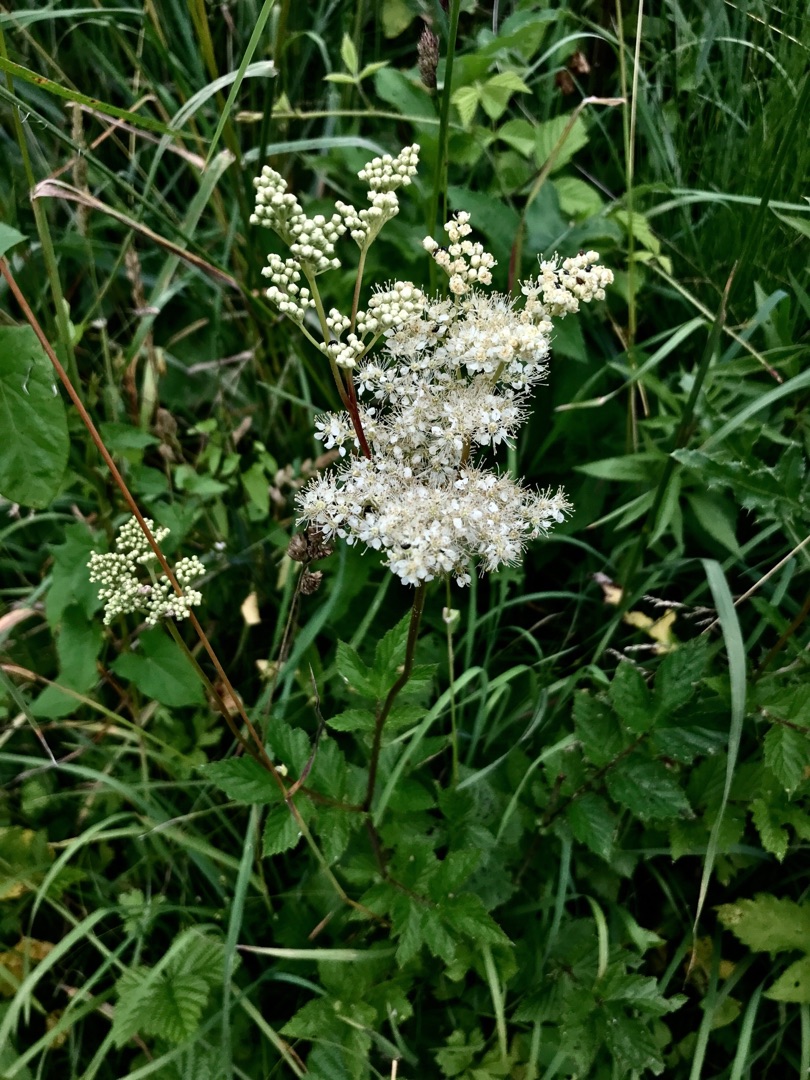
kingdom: Plantae
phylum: Tracheophyta
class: Magnoliopsida
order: Rosales
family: Rosaceae
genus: Filipendula
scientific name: Filipendula ulmaria
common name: Almindelig mjødurt
